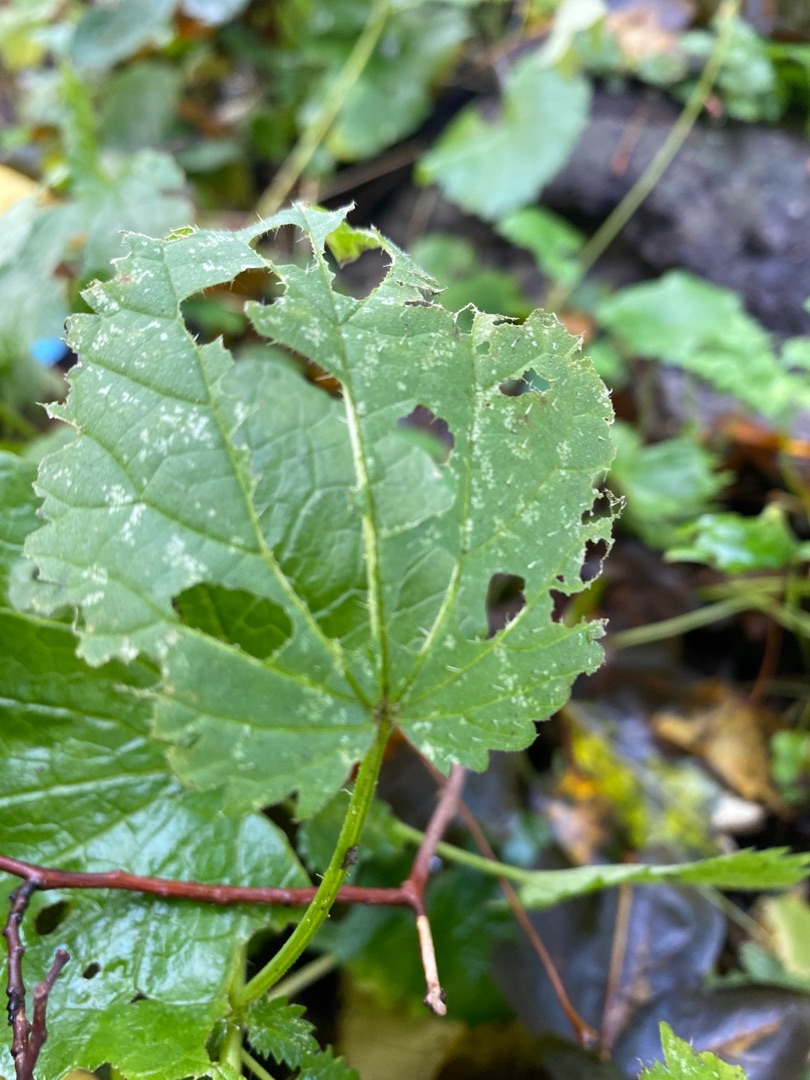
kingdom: Plantae
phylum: Tracheophyta
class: Magnoliopsida
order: Rosales
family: Urticaceae
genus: Urtica
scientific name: Urtica dioica
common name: Stor nælde
